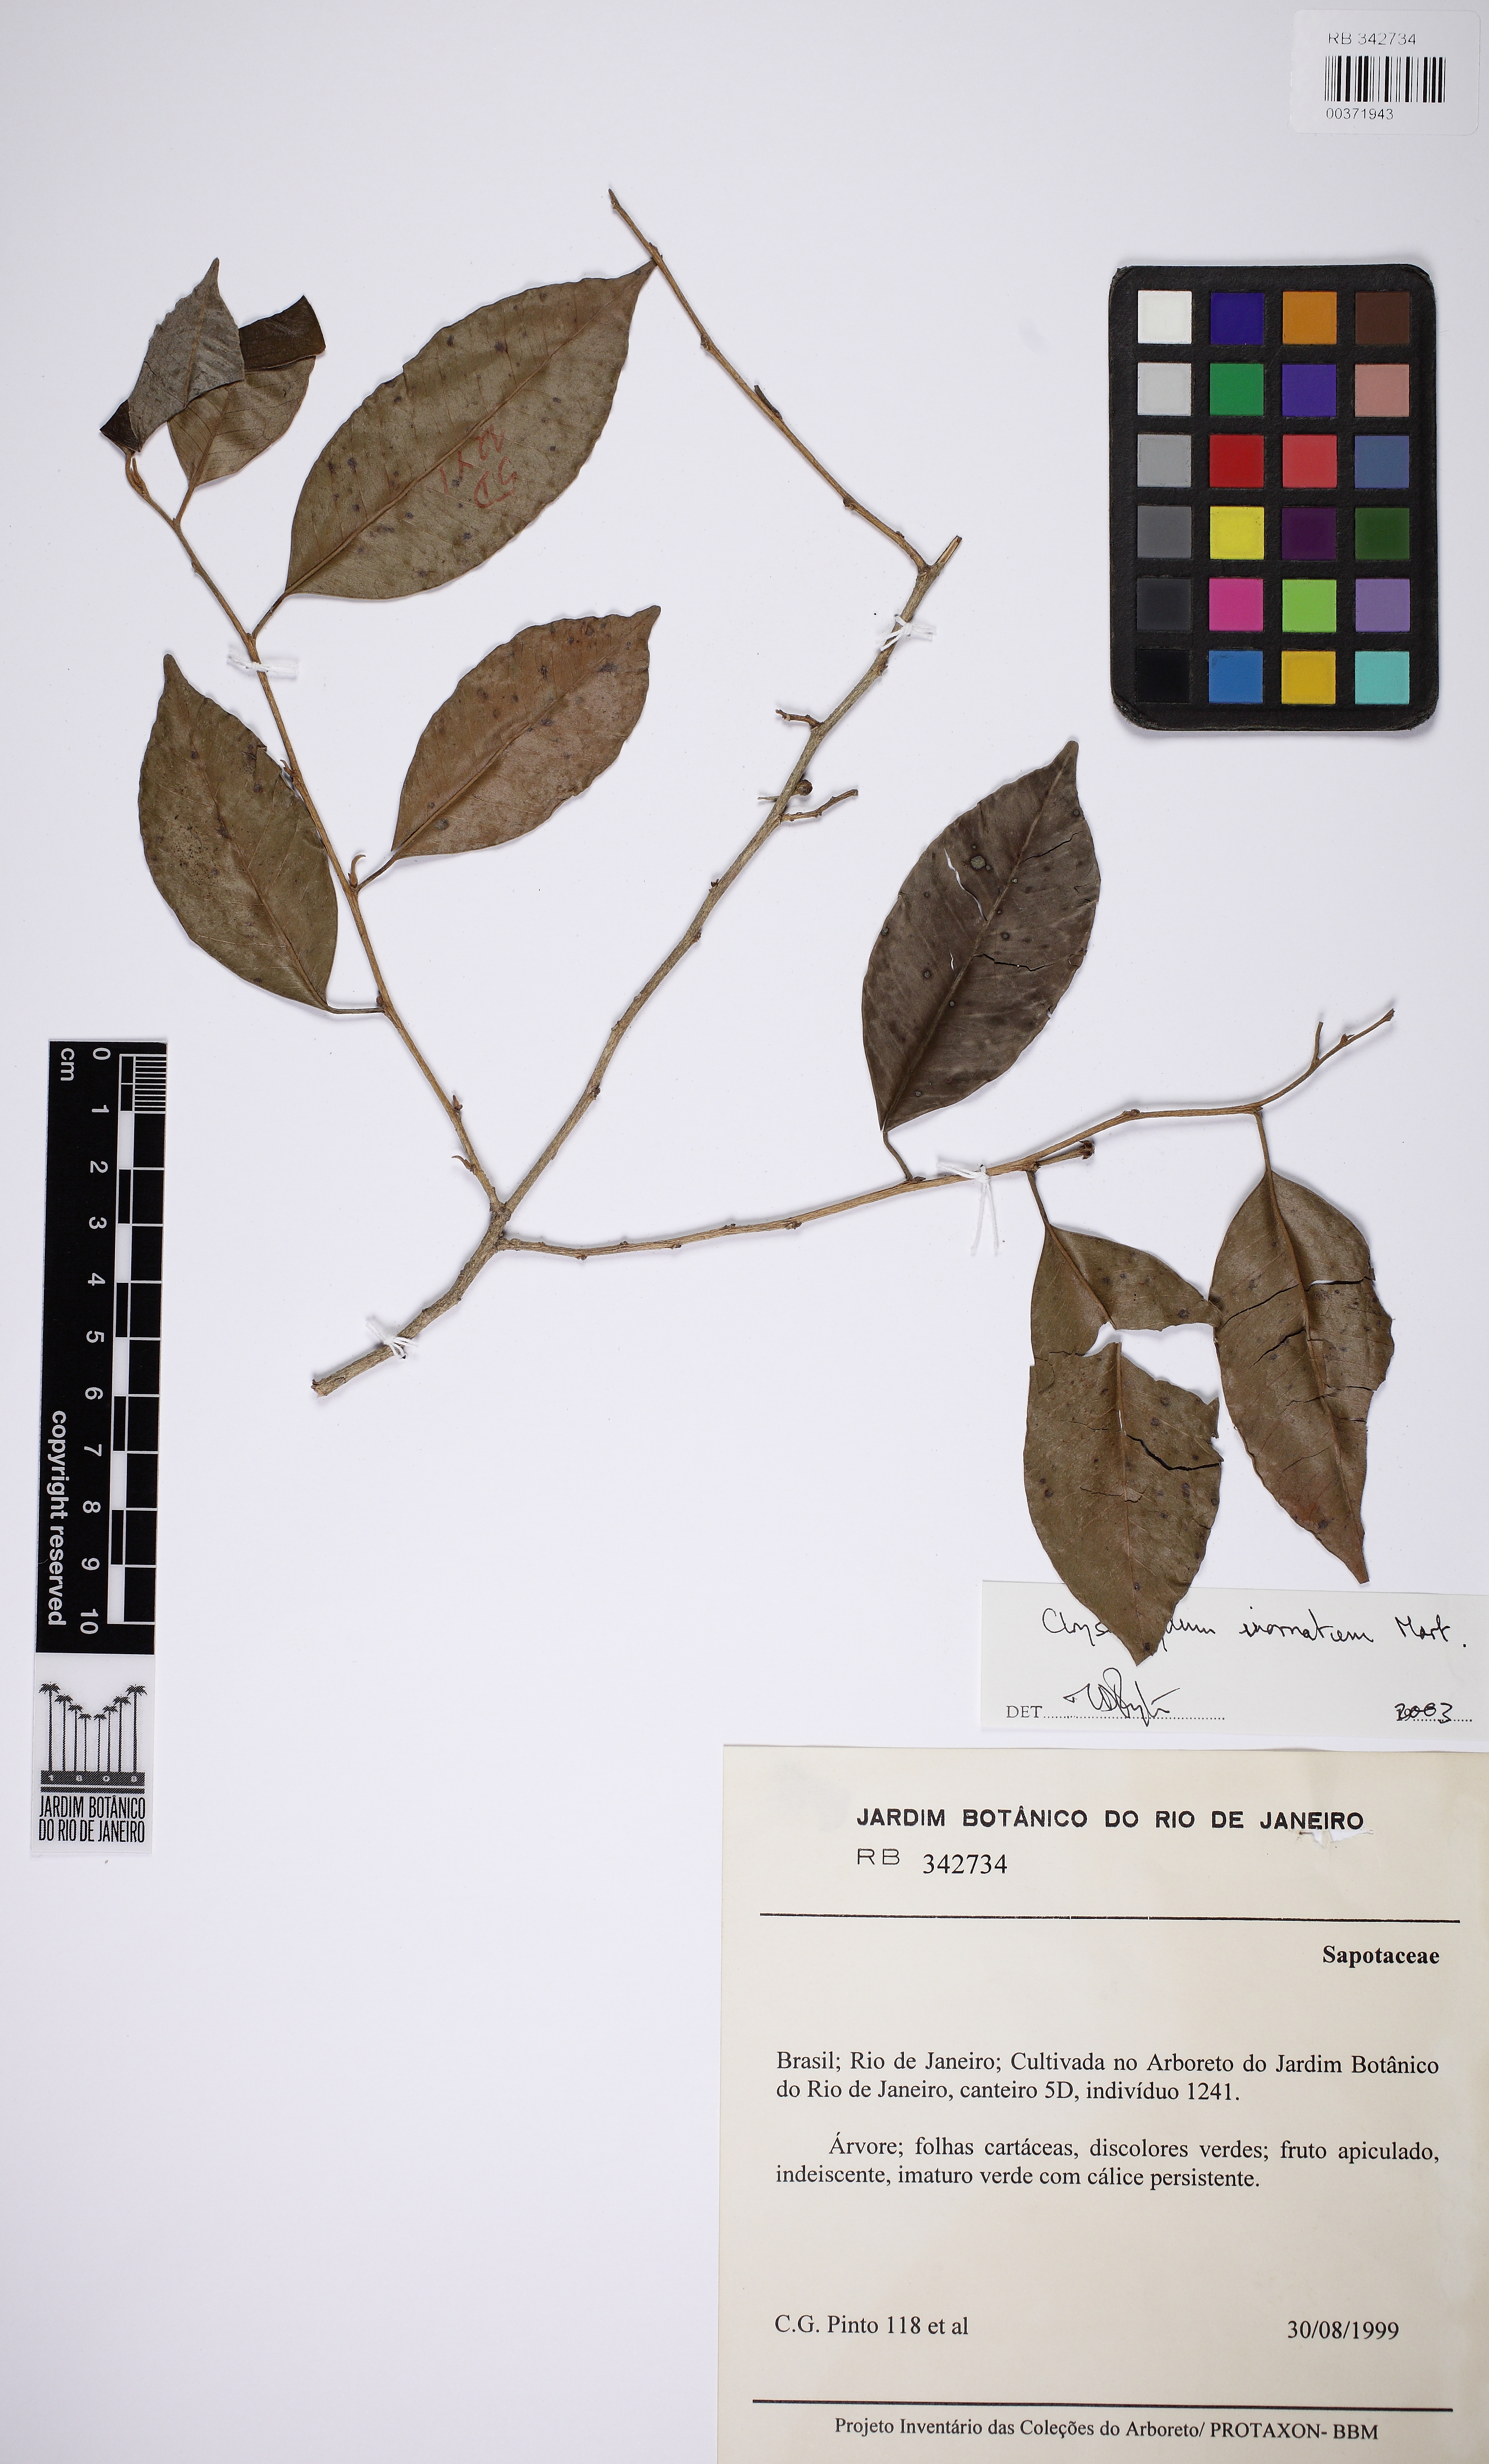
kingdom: Plantae
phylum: Tracheophyta
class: Magnoliopsida
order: Ericales
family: Sapotaceae
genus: Chrysophyllum
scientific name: Chrysophyllum inornatum
